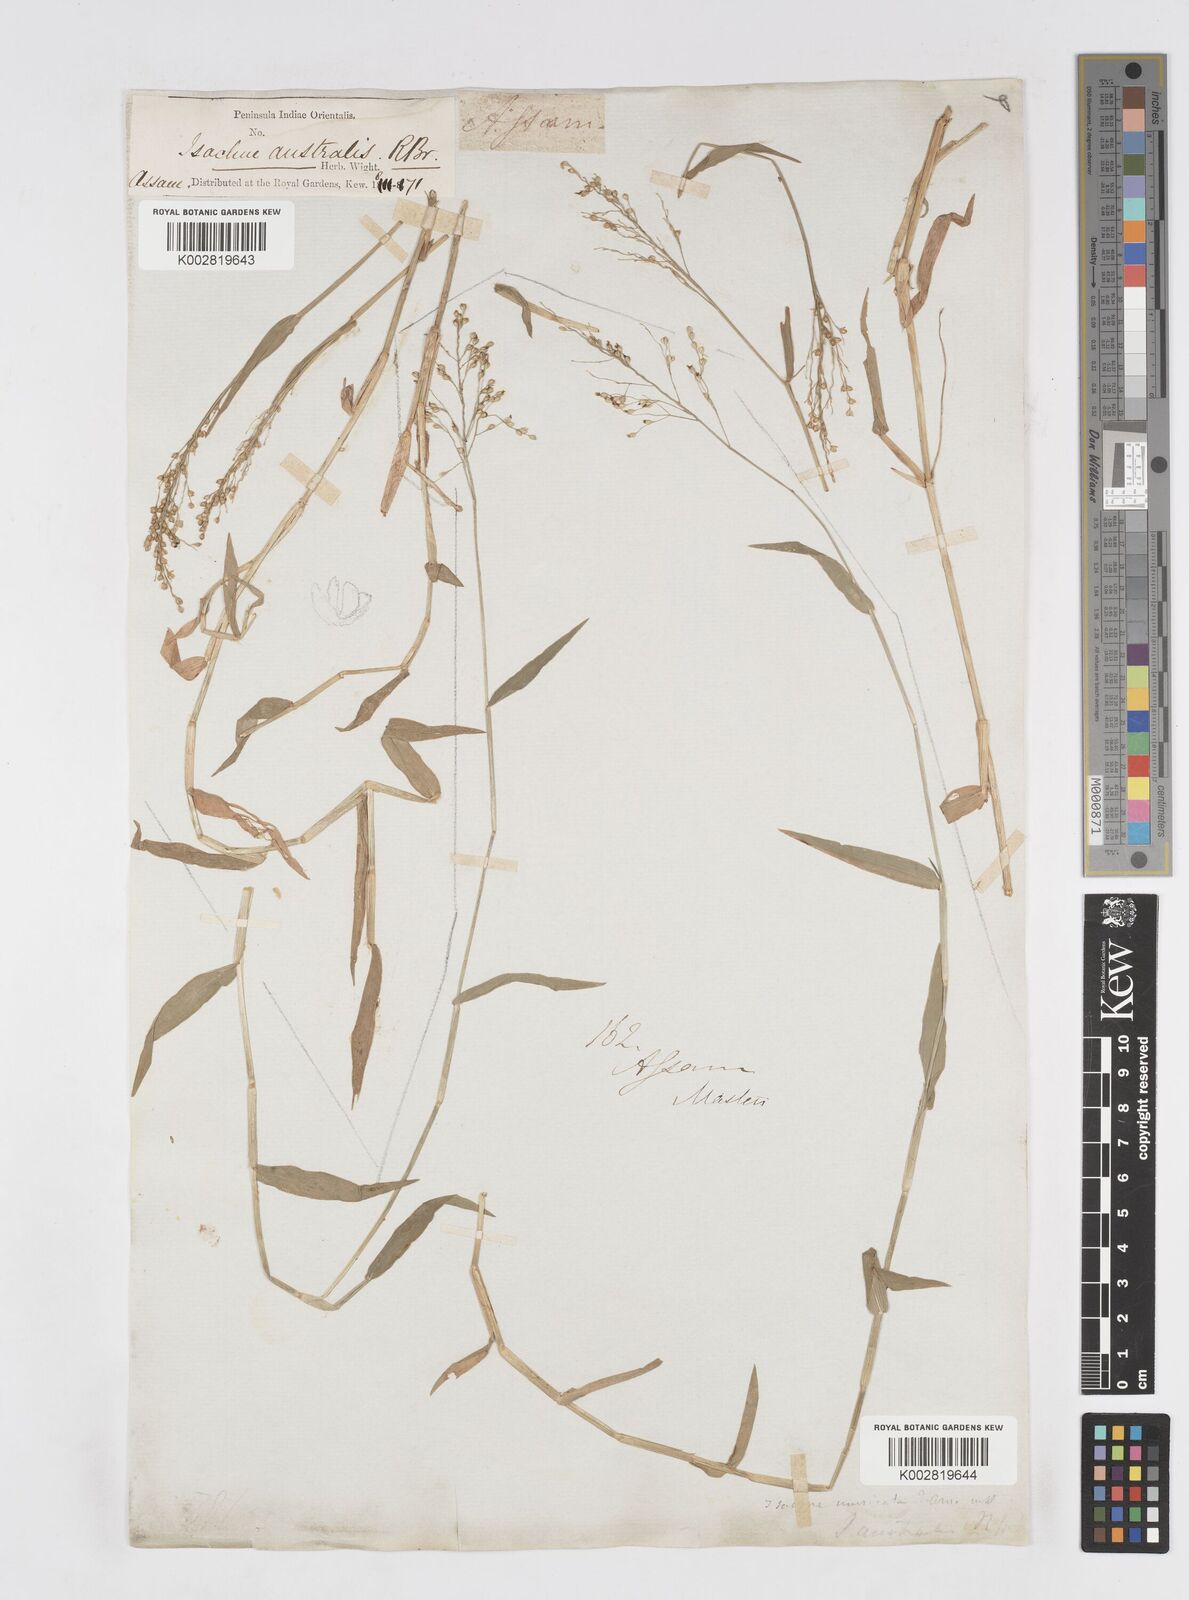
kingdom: Plantae
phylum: Tracheophyta
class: Liliopsida
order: Poales
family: Poaceae
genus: Isachne
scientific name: Isachne globosa
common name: Swamp millet
